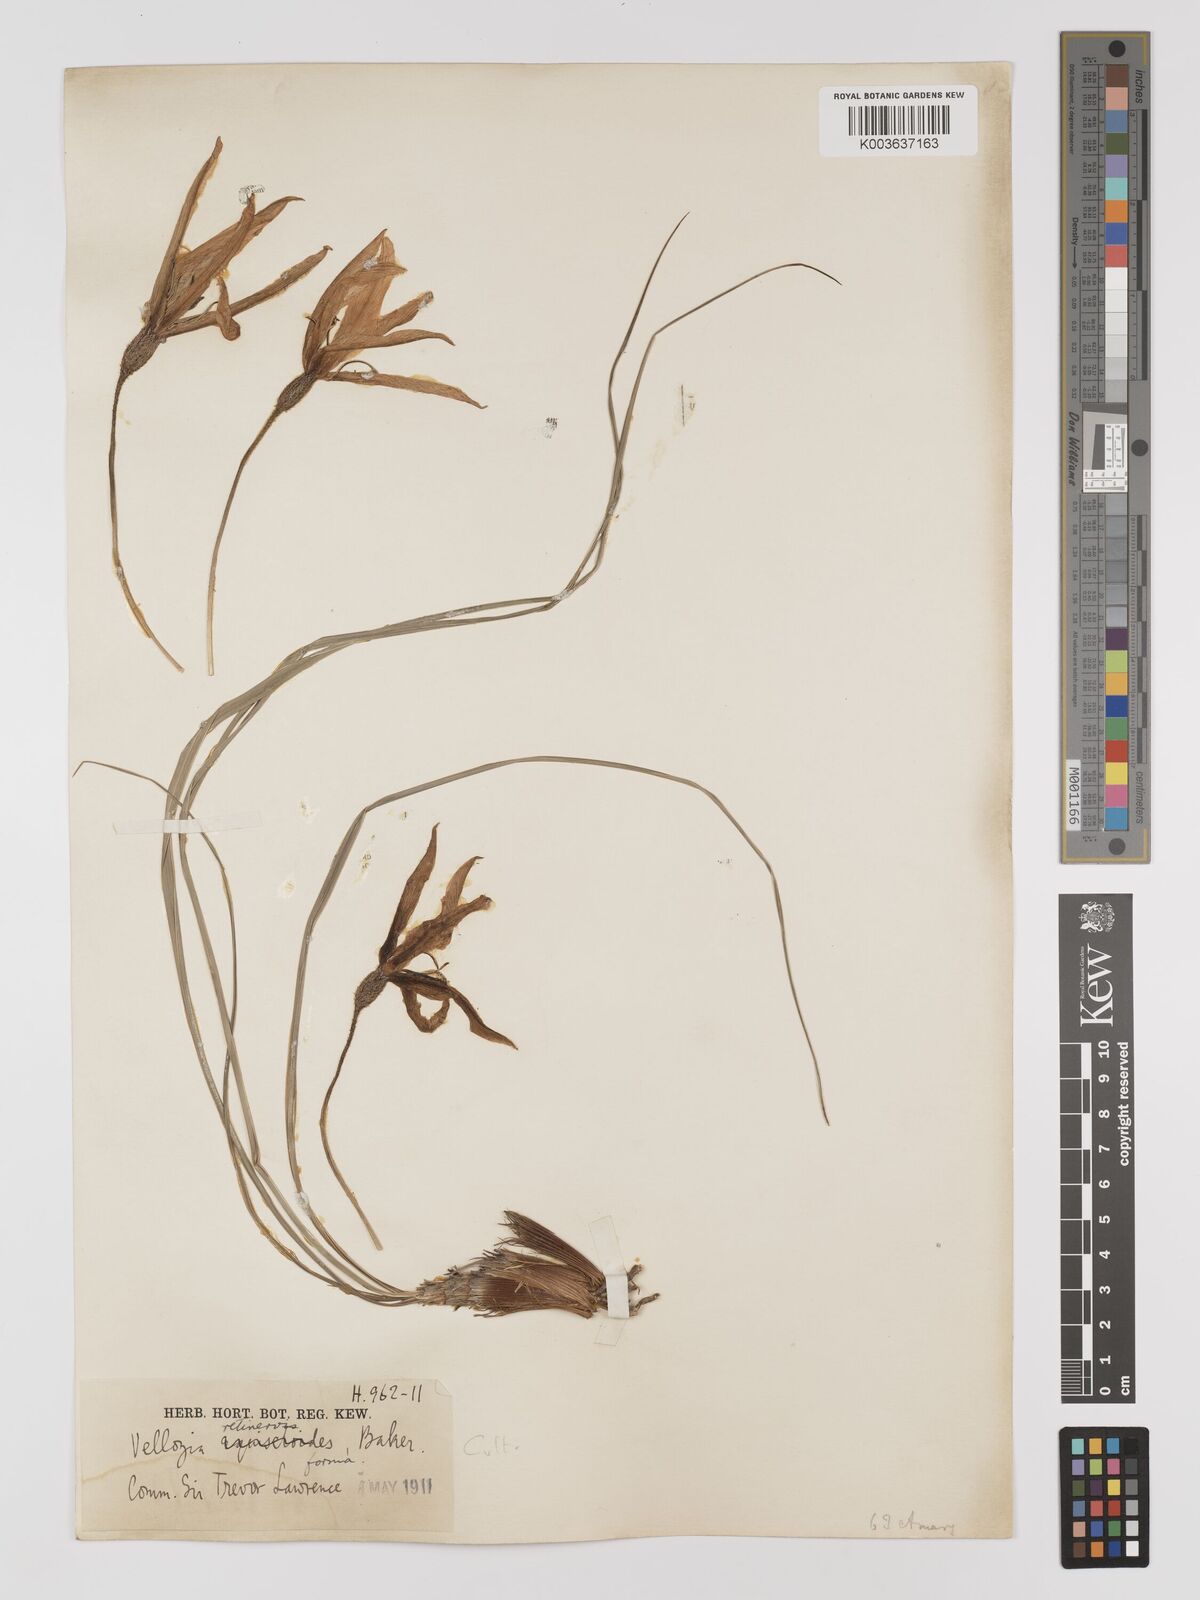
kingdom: Plantae
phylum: Tracheophyta
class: Liliopsida
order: Pandanales
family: Velloziaceae
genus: Xerophyta
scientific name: Xerophyta retinervis
